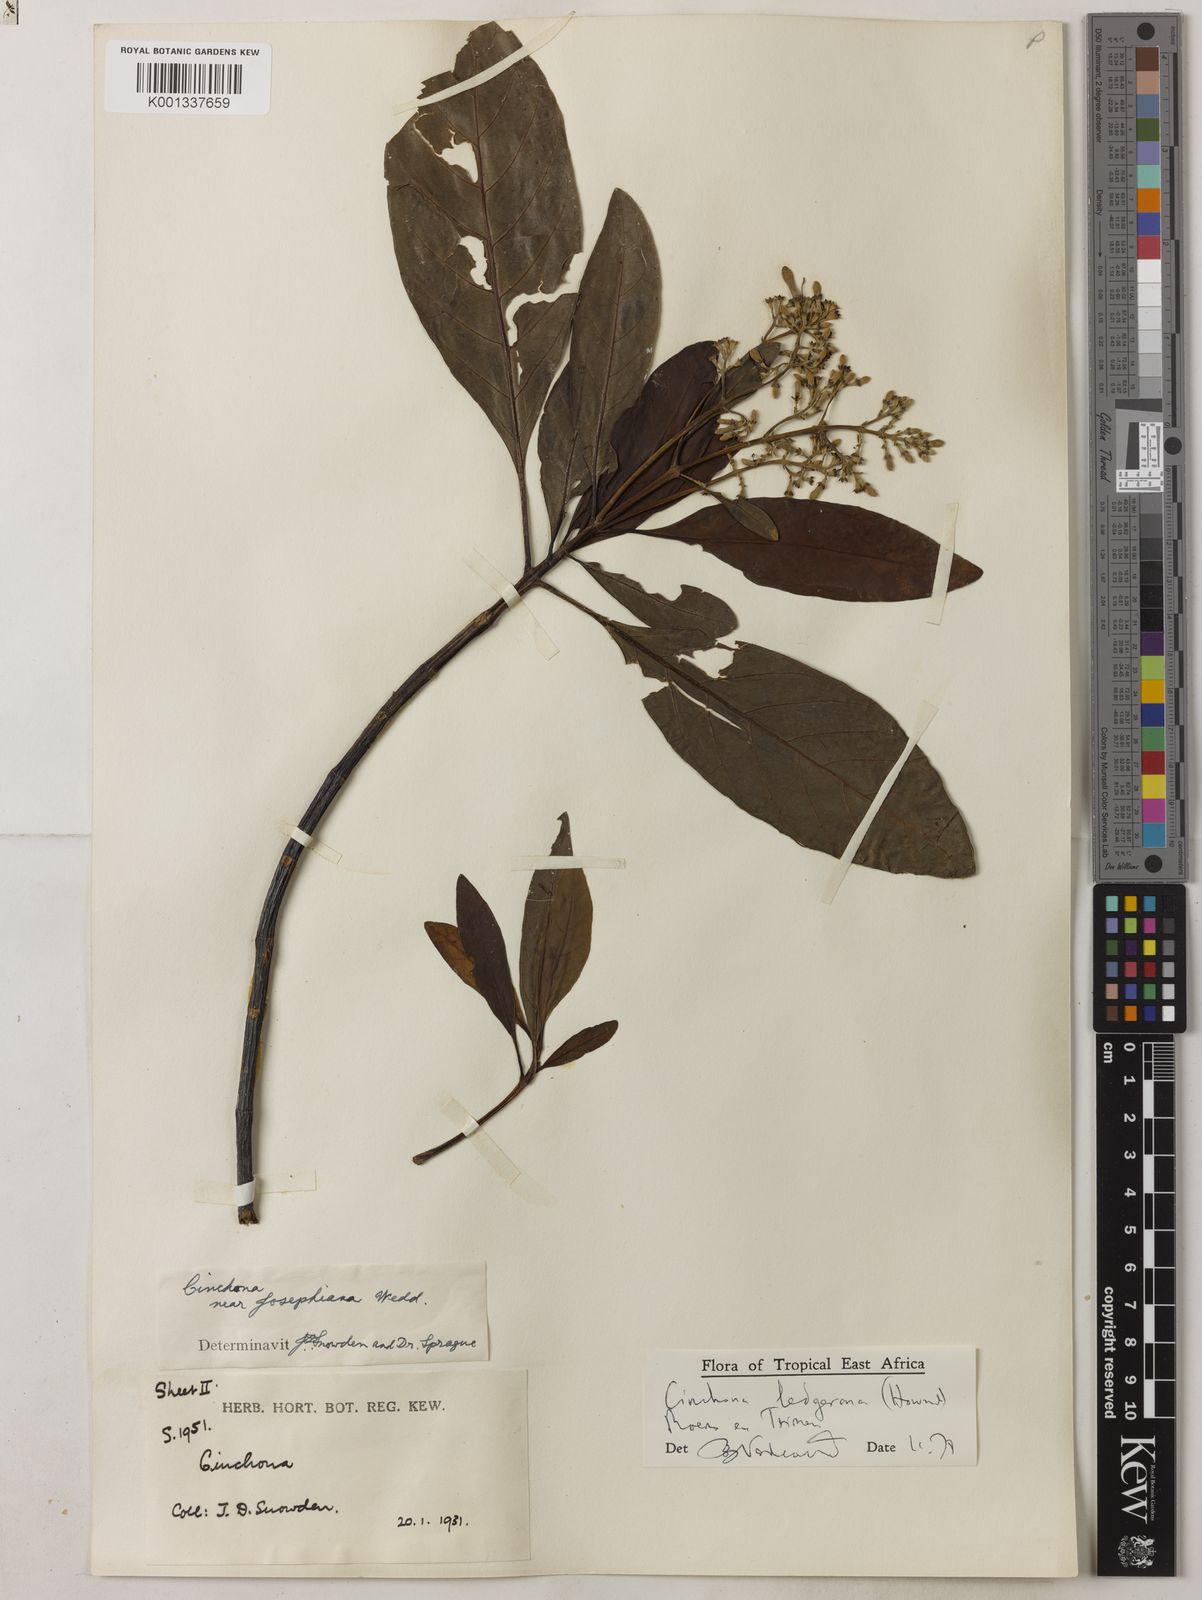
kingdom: Plantae
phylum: Tracheophyta
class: Magnoliopsida
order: Gentianales
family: Rubiaceae
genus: Cinchona
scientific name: Cinchona calisaya
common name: Ledgerbark
